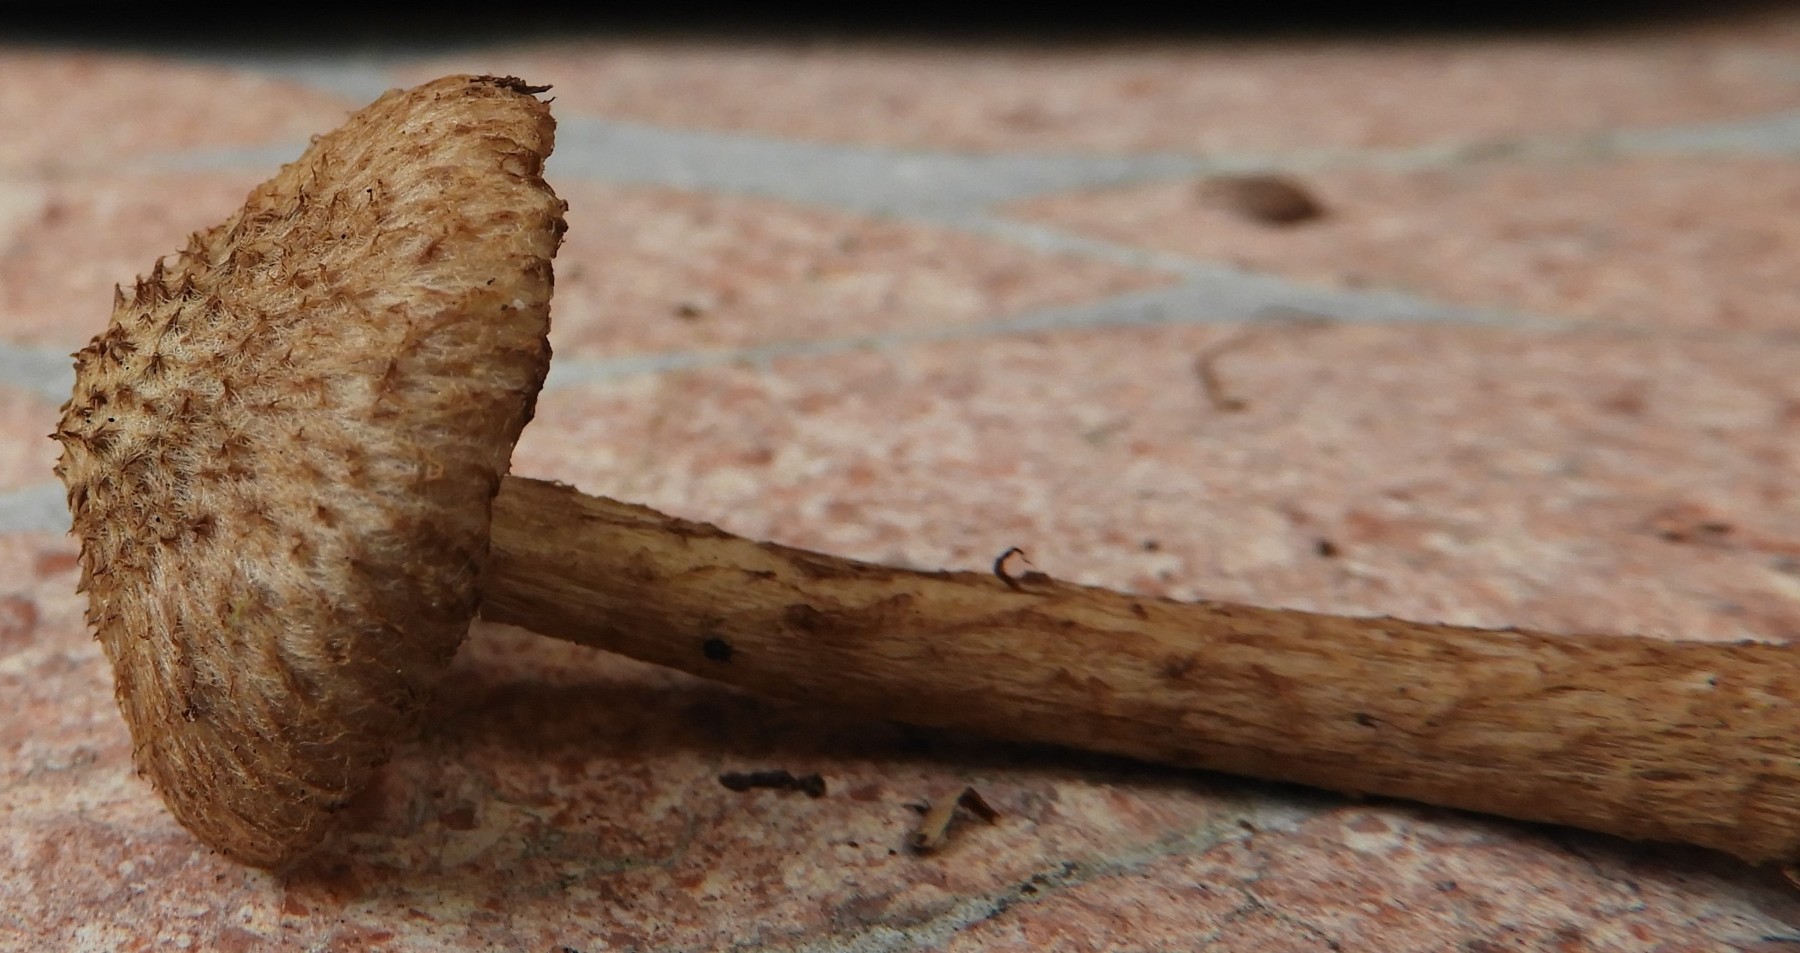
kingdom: Fungi
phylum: Basidiomycota
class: Agaricomycetes
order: Agaricales
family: Inocybaceae
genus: Inocybe
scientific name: Inocybe
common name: trævlhat
